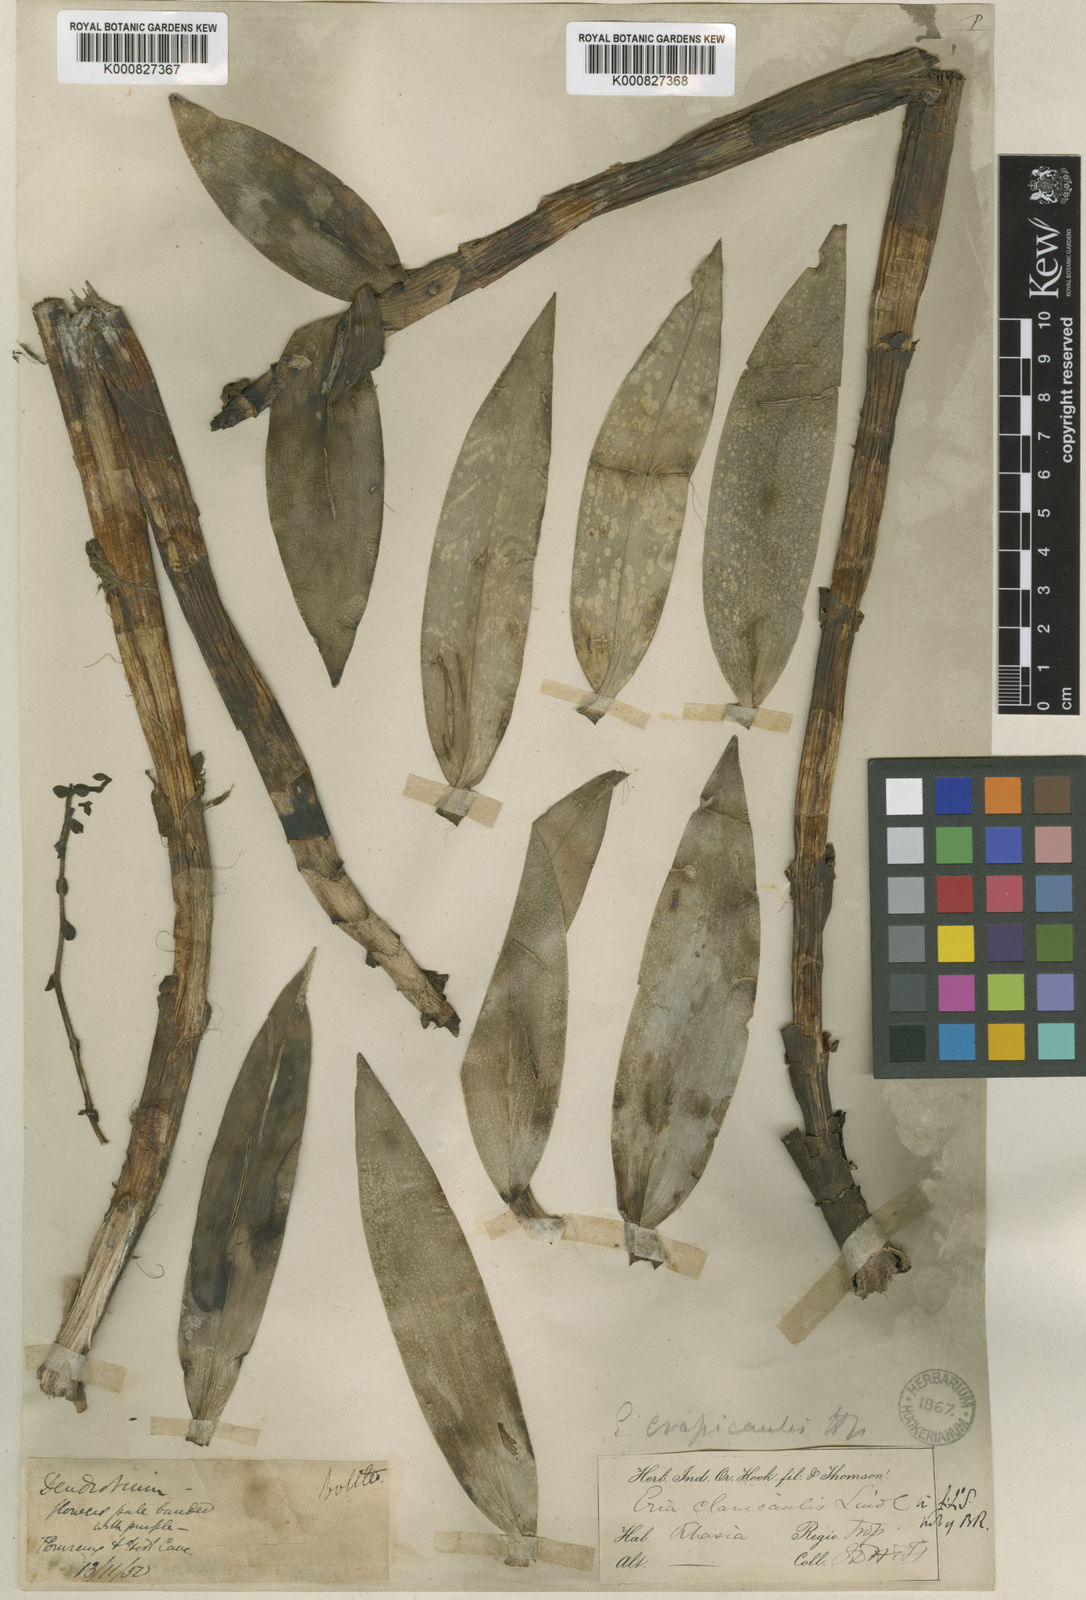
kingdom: Plantae
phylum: Tracheophyta
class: Liliopsida
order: Asparagales
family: Orchidaceae
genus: Bambuseria
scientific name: Bambuseria crassicaulis
